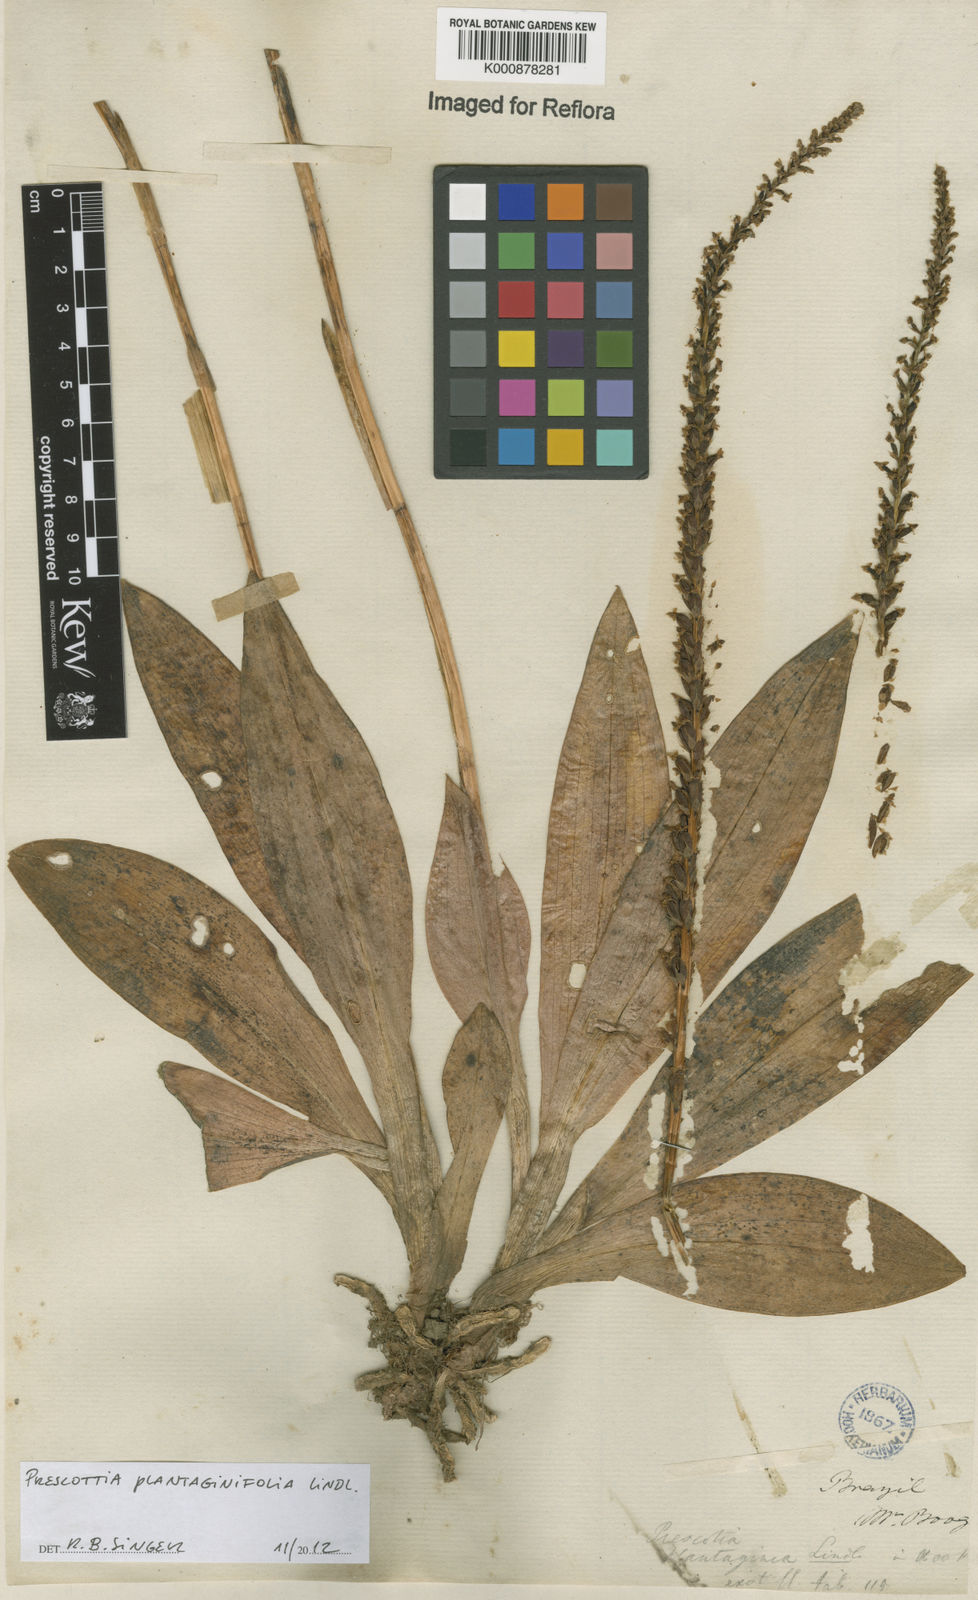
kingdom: Plantae
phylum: Tracheophyta
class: Liliopsida
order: Asparagales
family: Orchidaceae
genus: Prescottia
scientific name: Prescottia plantaginifolia
